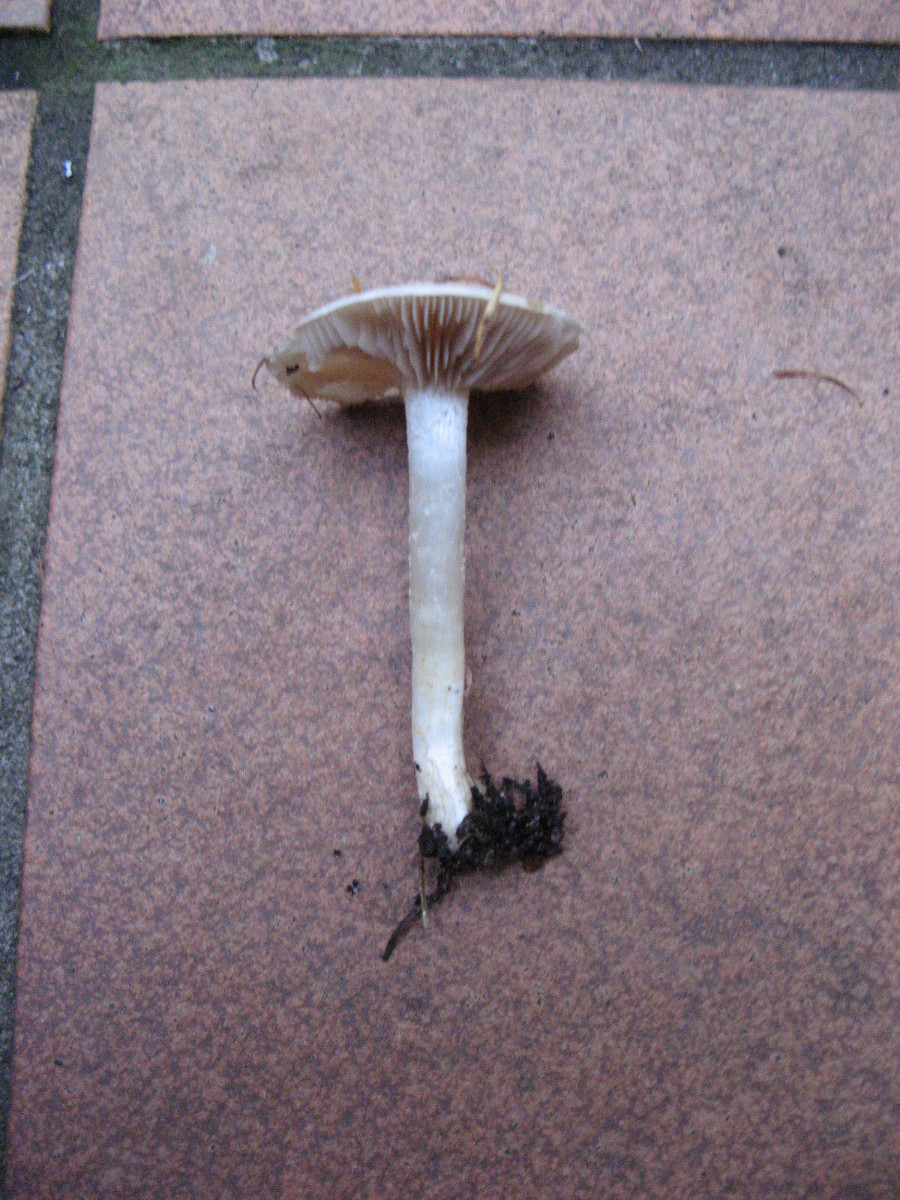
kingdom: Fungi
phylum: Basidiomycota
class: Agaricomycetes
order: Agaricales
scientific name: Agaricales
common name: champignonordenen
